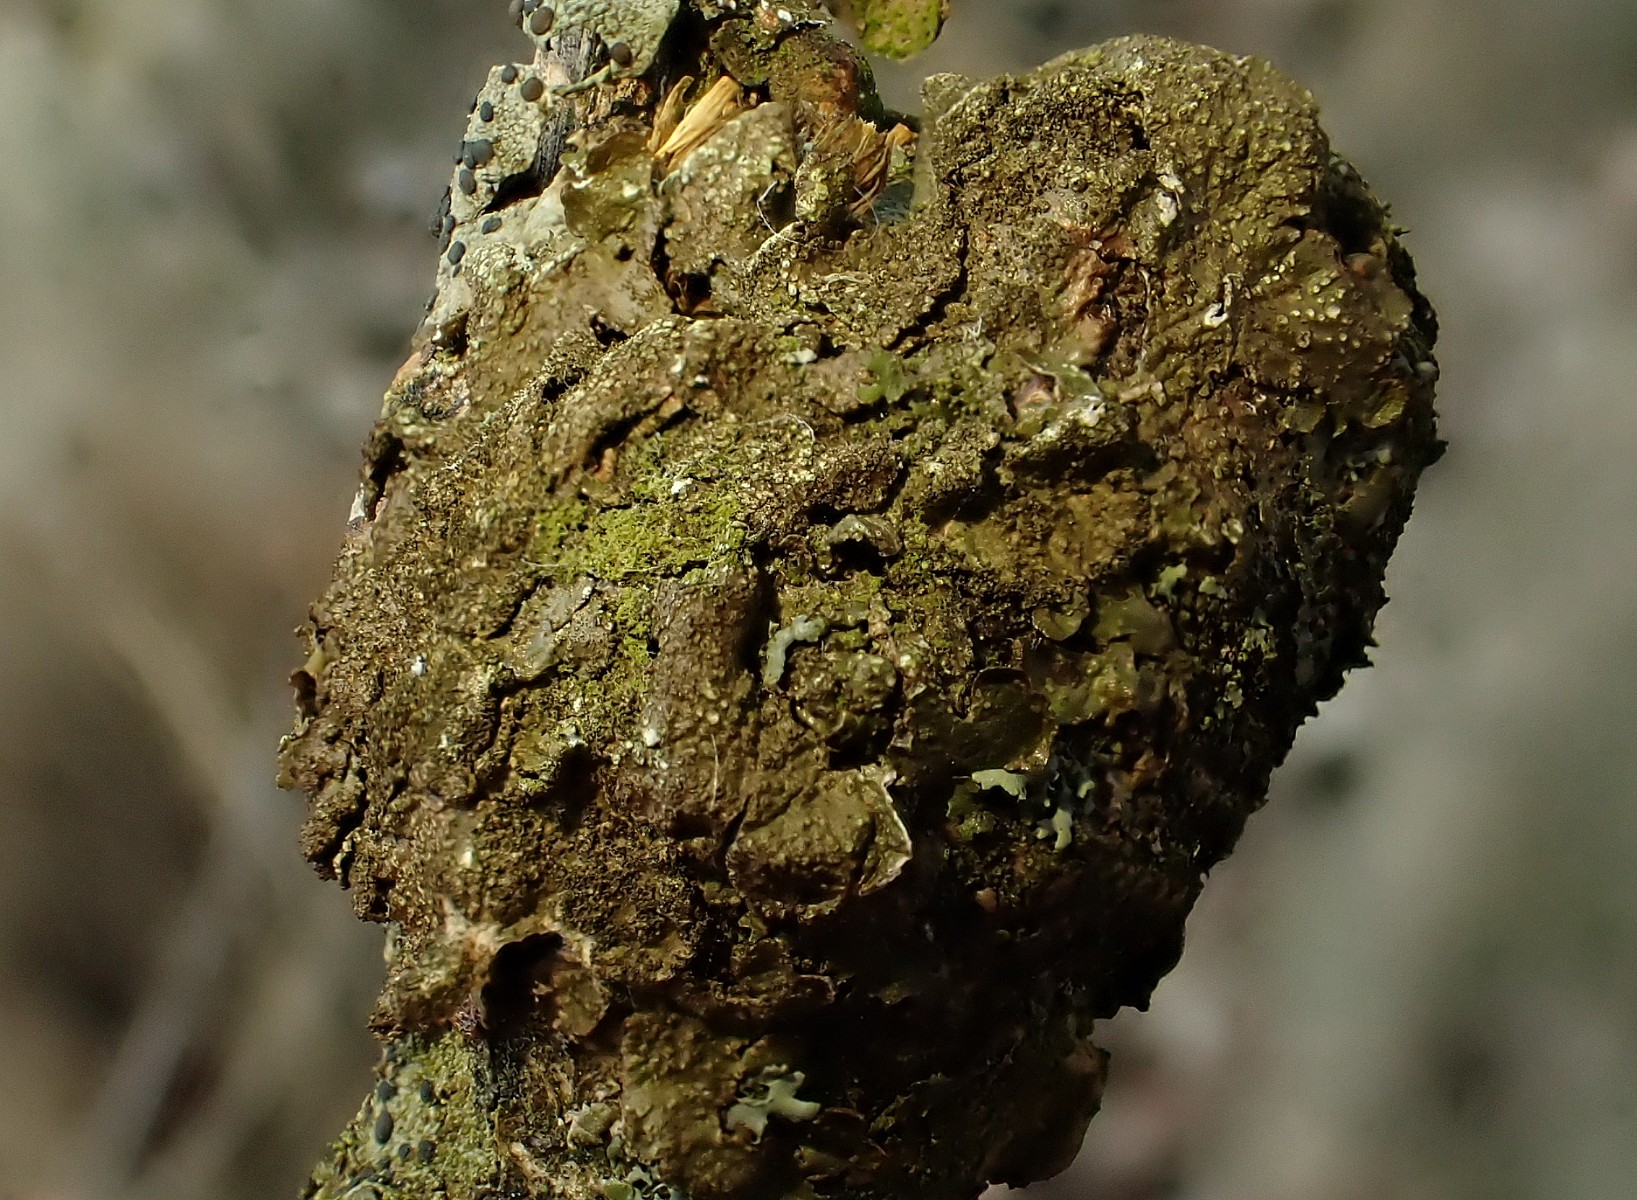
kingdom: Fungi
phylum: Ascomycota
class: Lecanoromycetes
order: Lecanorales
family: Parmeliaceae
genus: Melanelixia
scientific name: Melanelixia subaurifera
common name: guldpudret skållav
